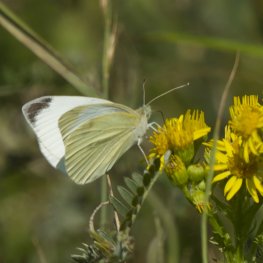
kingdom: Animalia
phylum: Arthropoda
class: Insecta
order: Lepidoptera
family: Pieridae
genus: Pieris
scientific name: Pieris rapae
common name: Cabbage White
